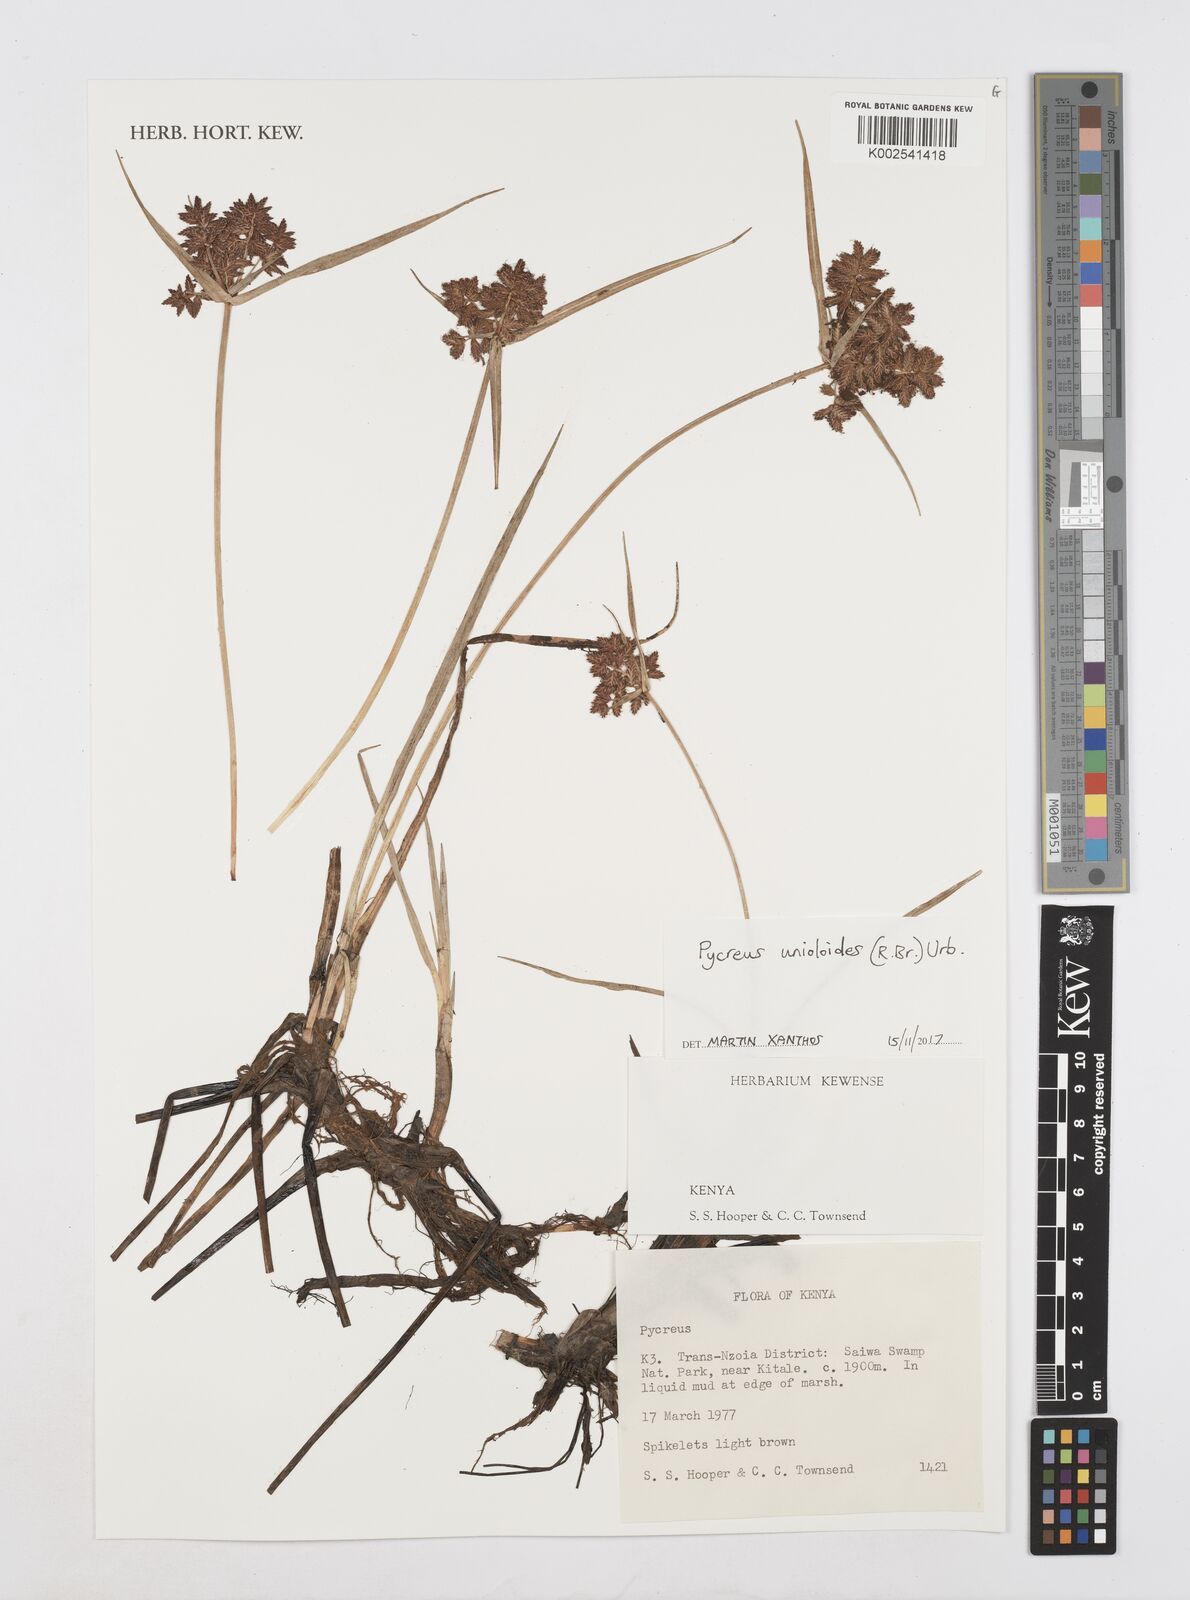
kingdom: Plantae
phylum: Tracheophyta
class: Liliopsida
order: Poales
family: Cyperaceae
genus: Cyperus
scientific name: Cyperus unioloides
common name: Uniola flatsedge
